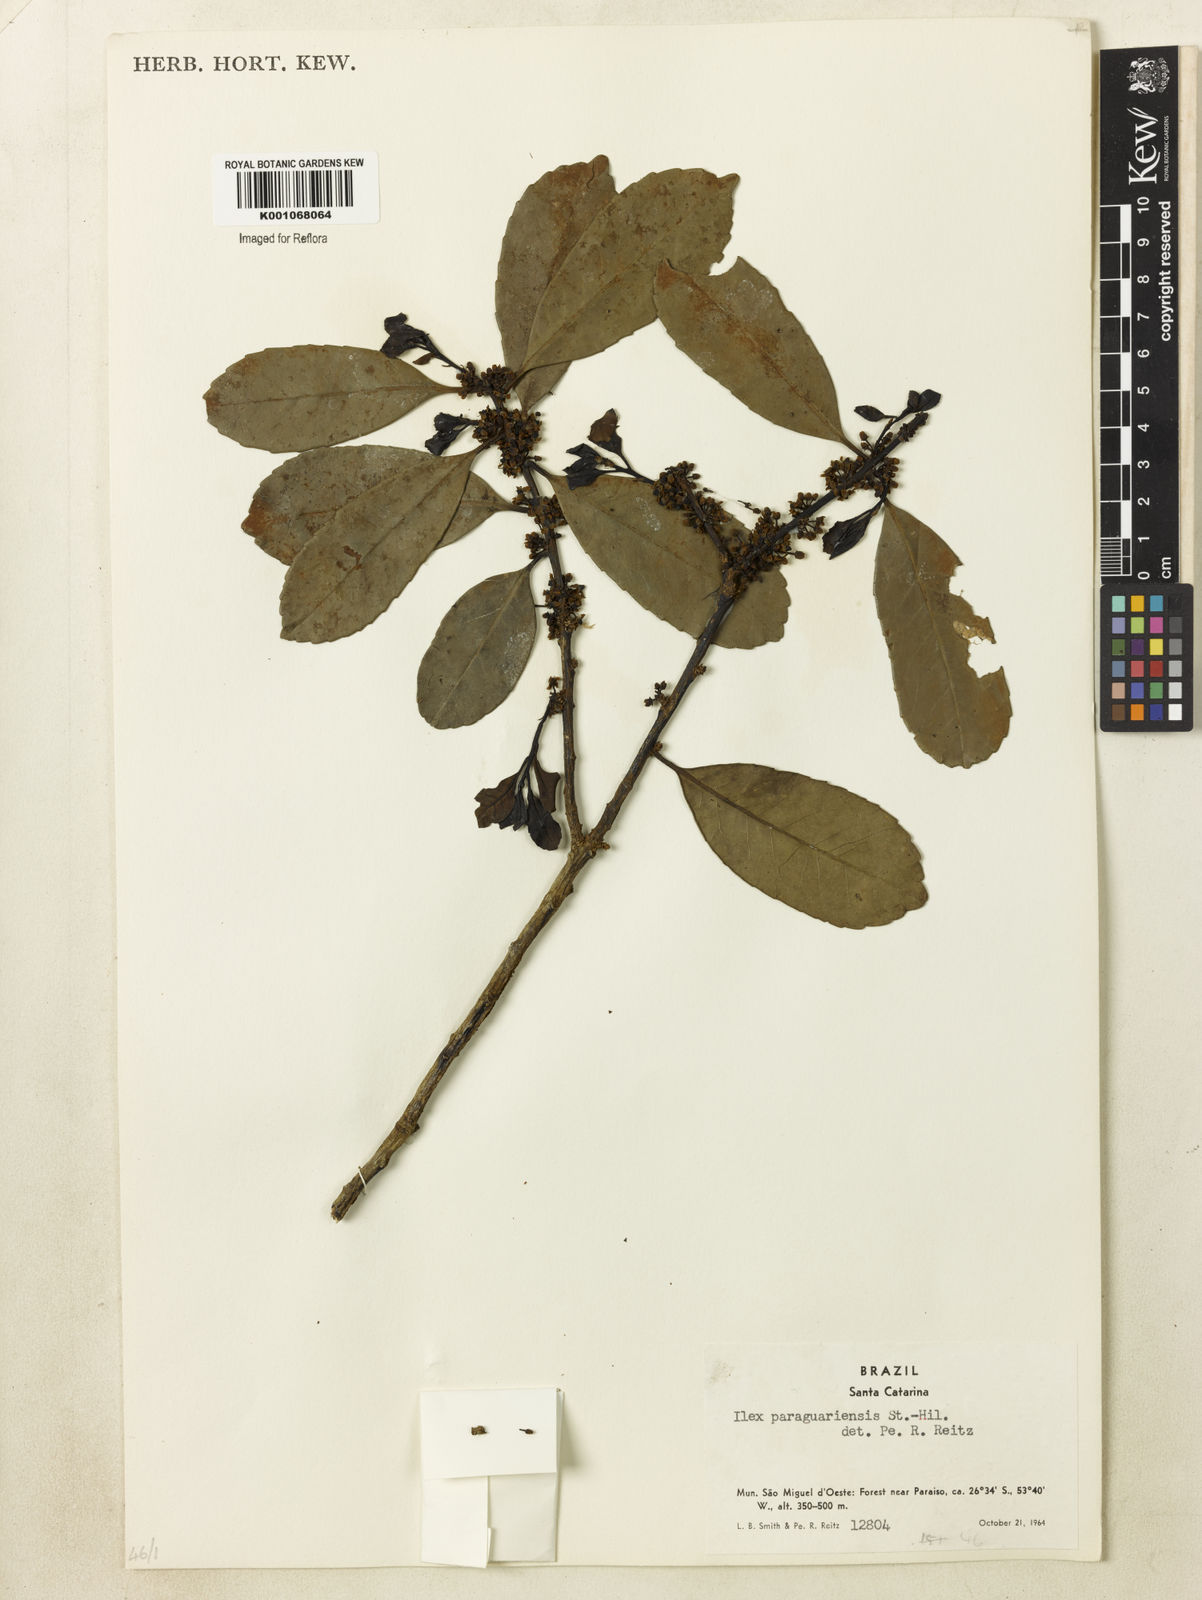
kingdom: Plantae
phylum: Tracheophyta
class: Magnoliopsida
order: Aquifoliales
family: Aquifoliaceae
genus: Ilex
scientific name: Ilex paraguariensis
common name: Paraguay tea
